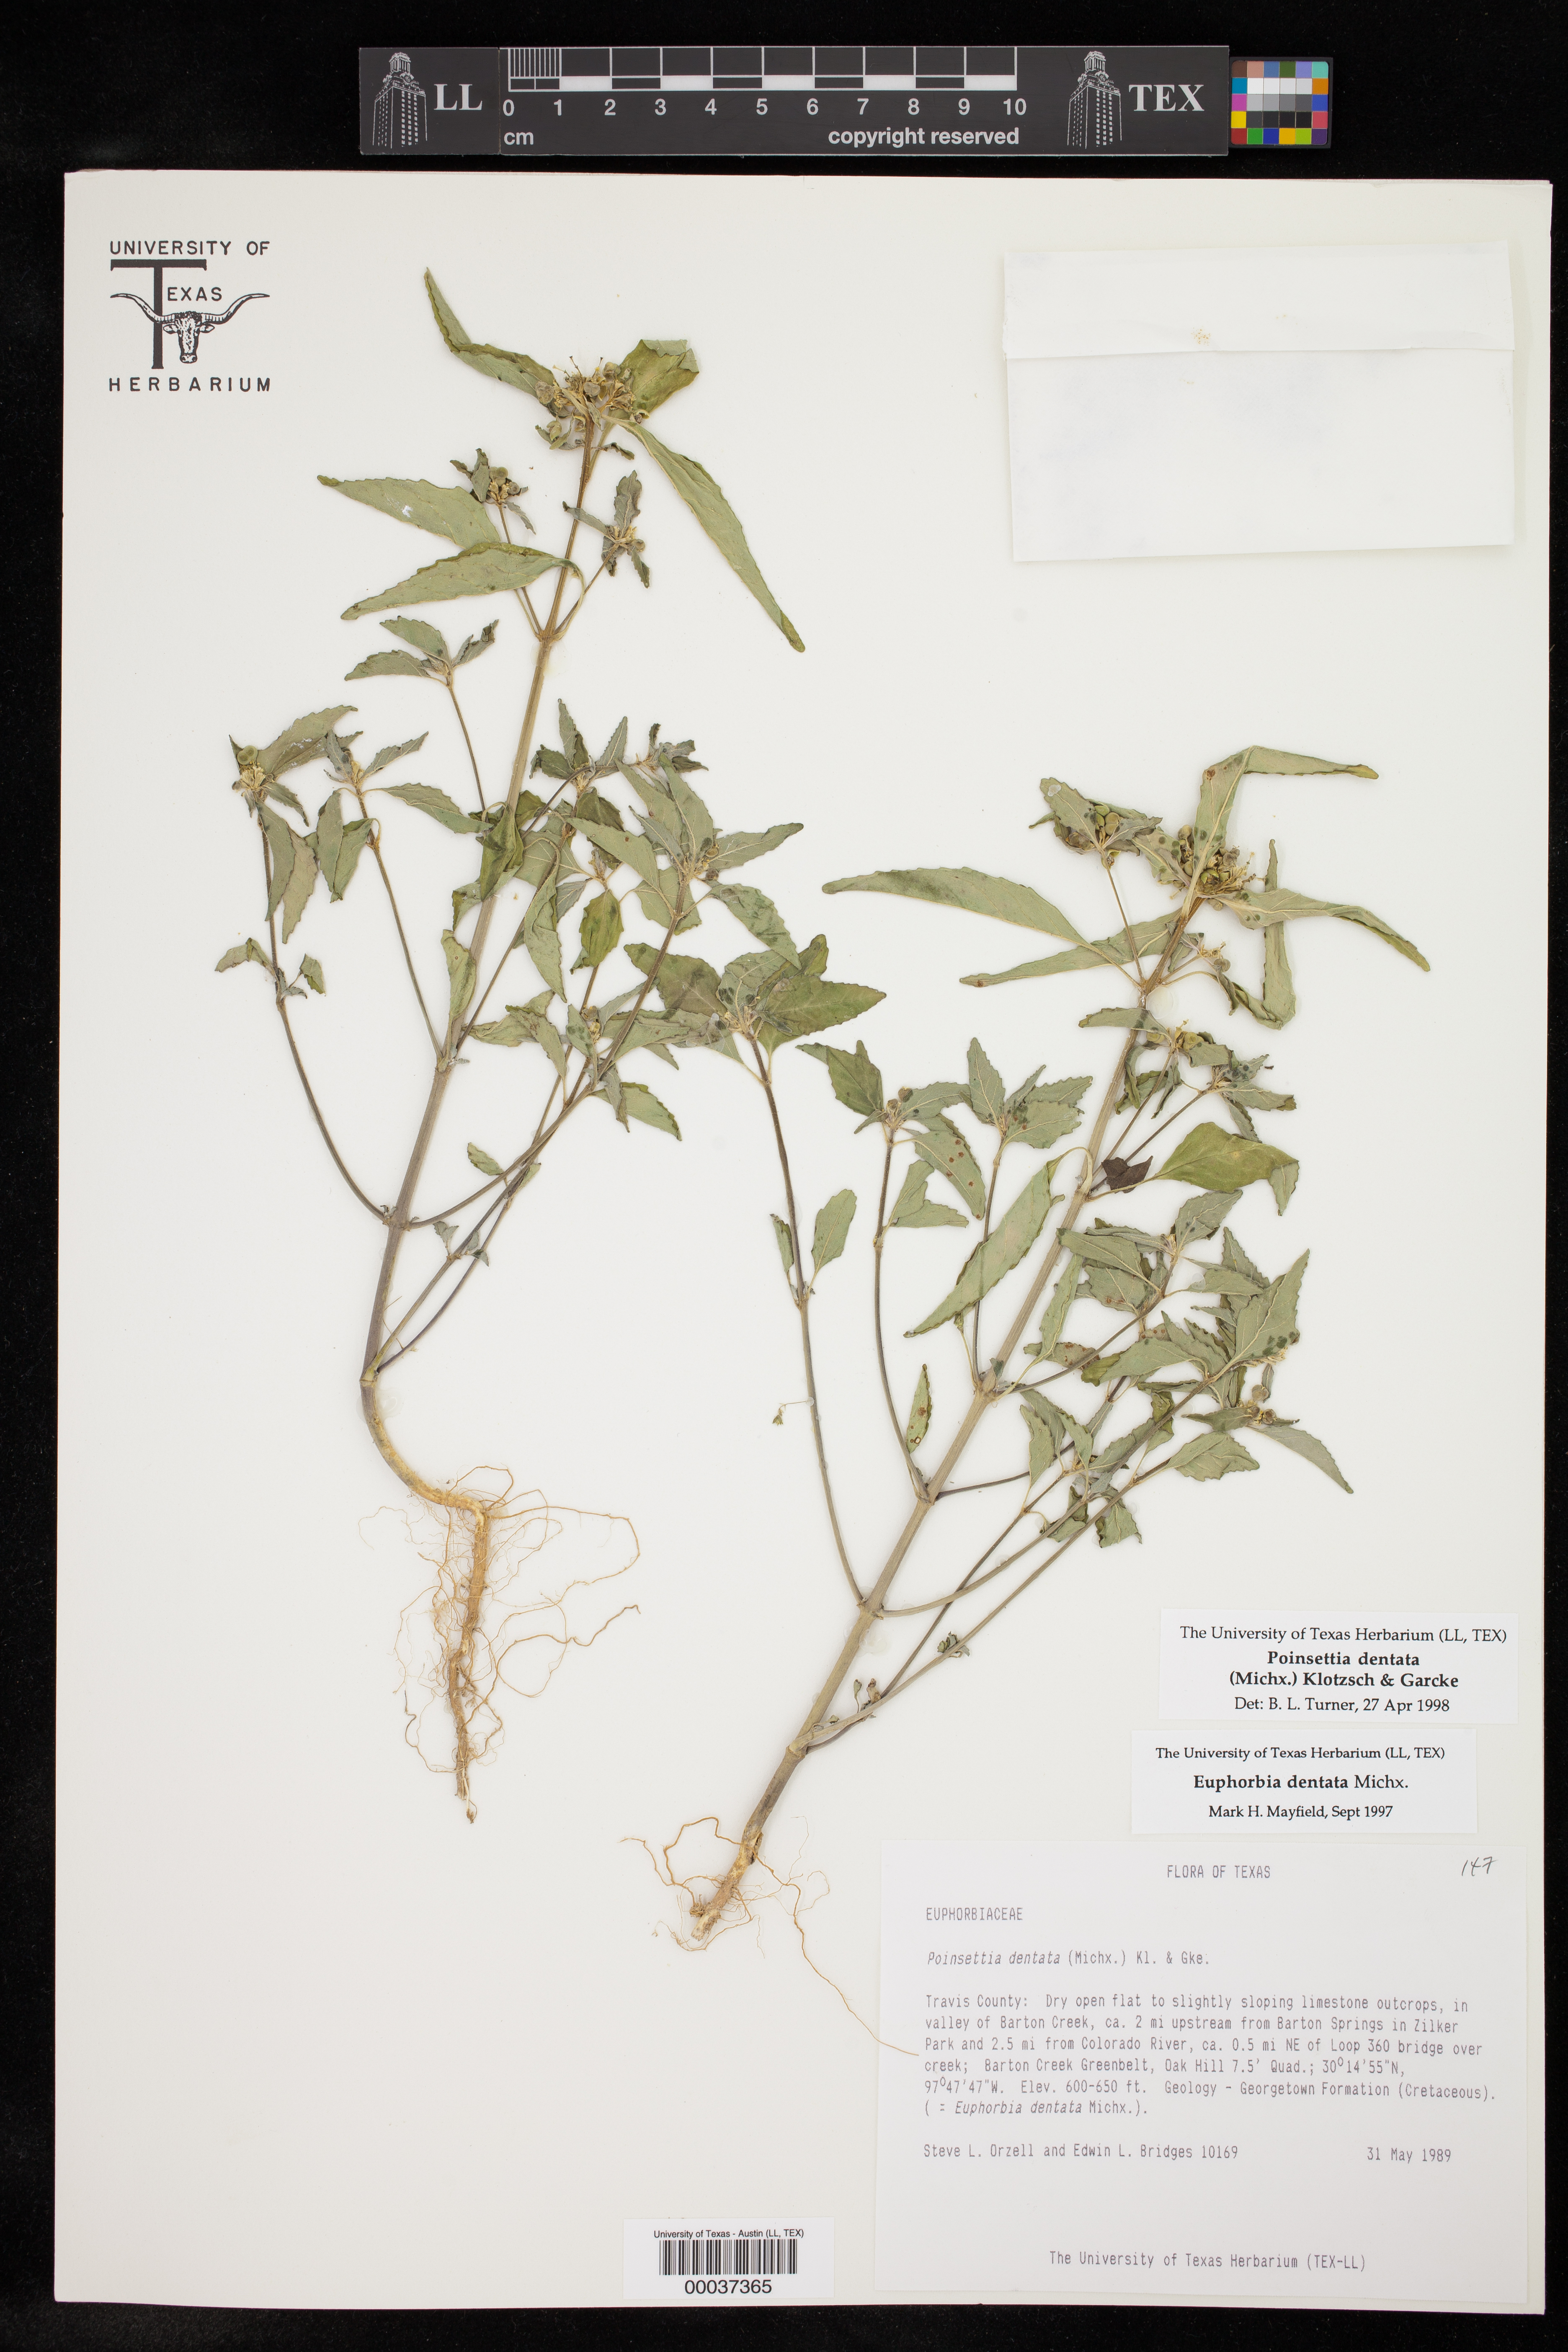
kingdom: Plantae
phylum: Tracheophyta
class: Magnoliopsida
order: Malpighiales
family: Euphorbiaceae
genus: Euphorbia
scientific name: Euphorbia dentata
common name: Dentate spurge
